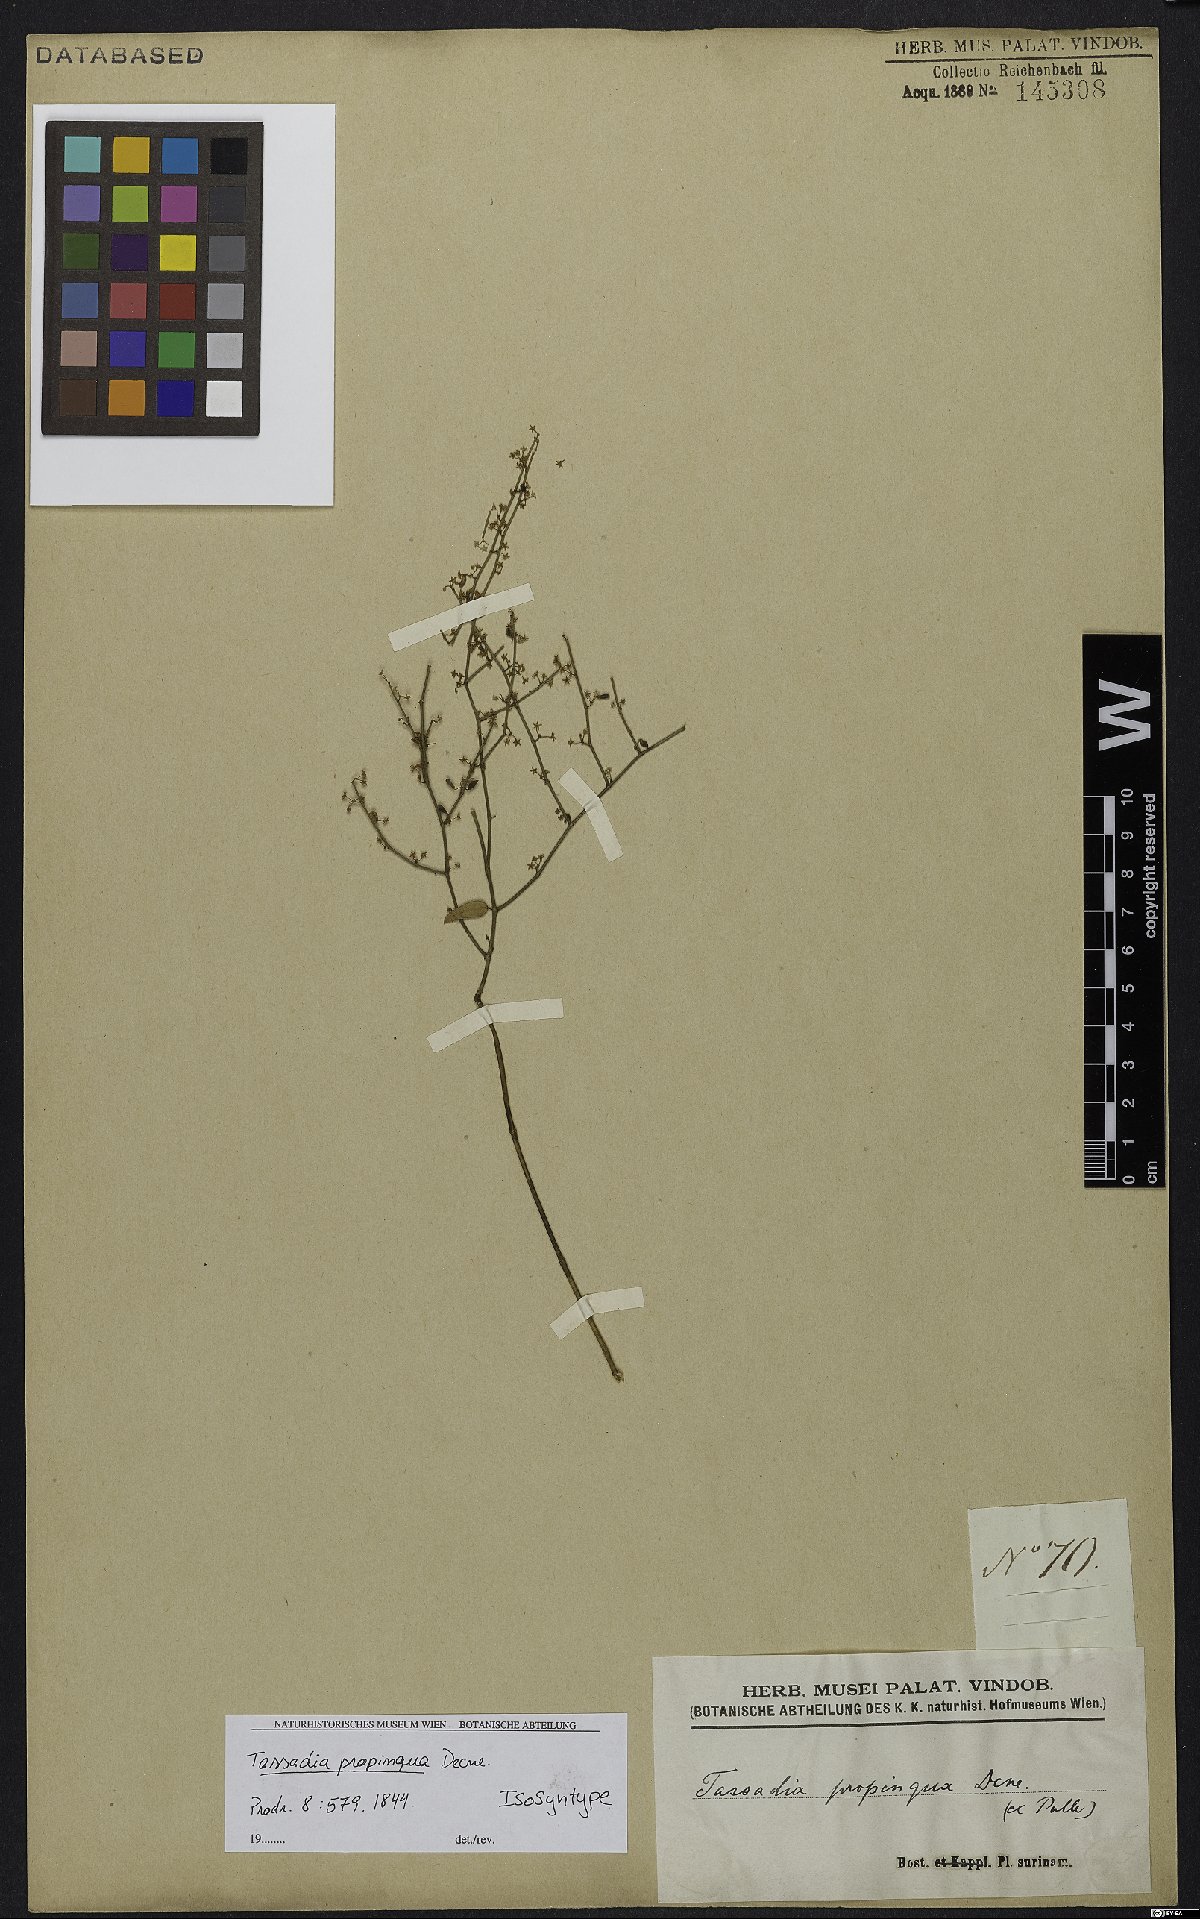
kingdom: Plantae
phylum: Tracheophyta
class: Magnoliopsida
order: Gentianales
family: Apocynaceae
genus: Tassadia
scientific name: Tassadia propinqua
